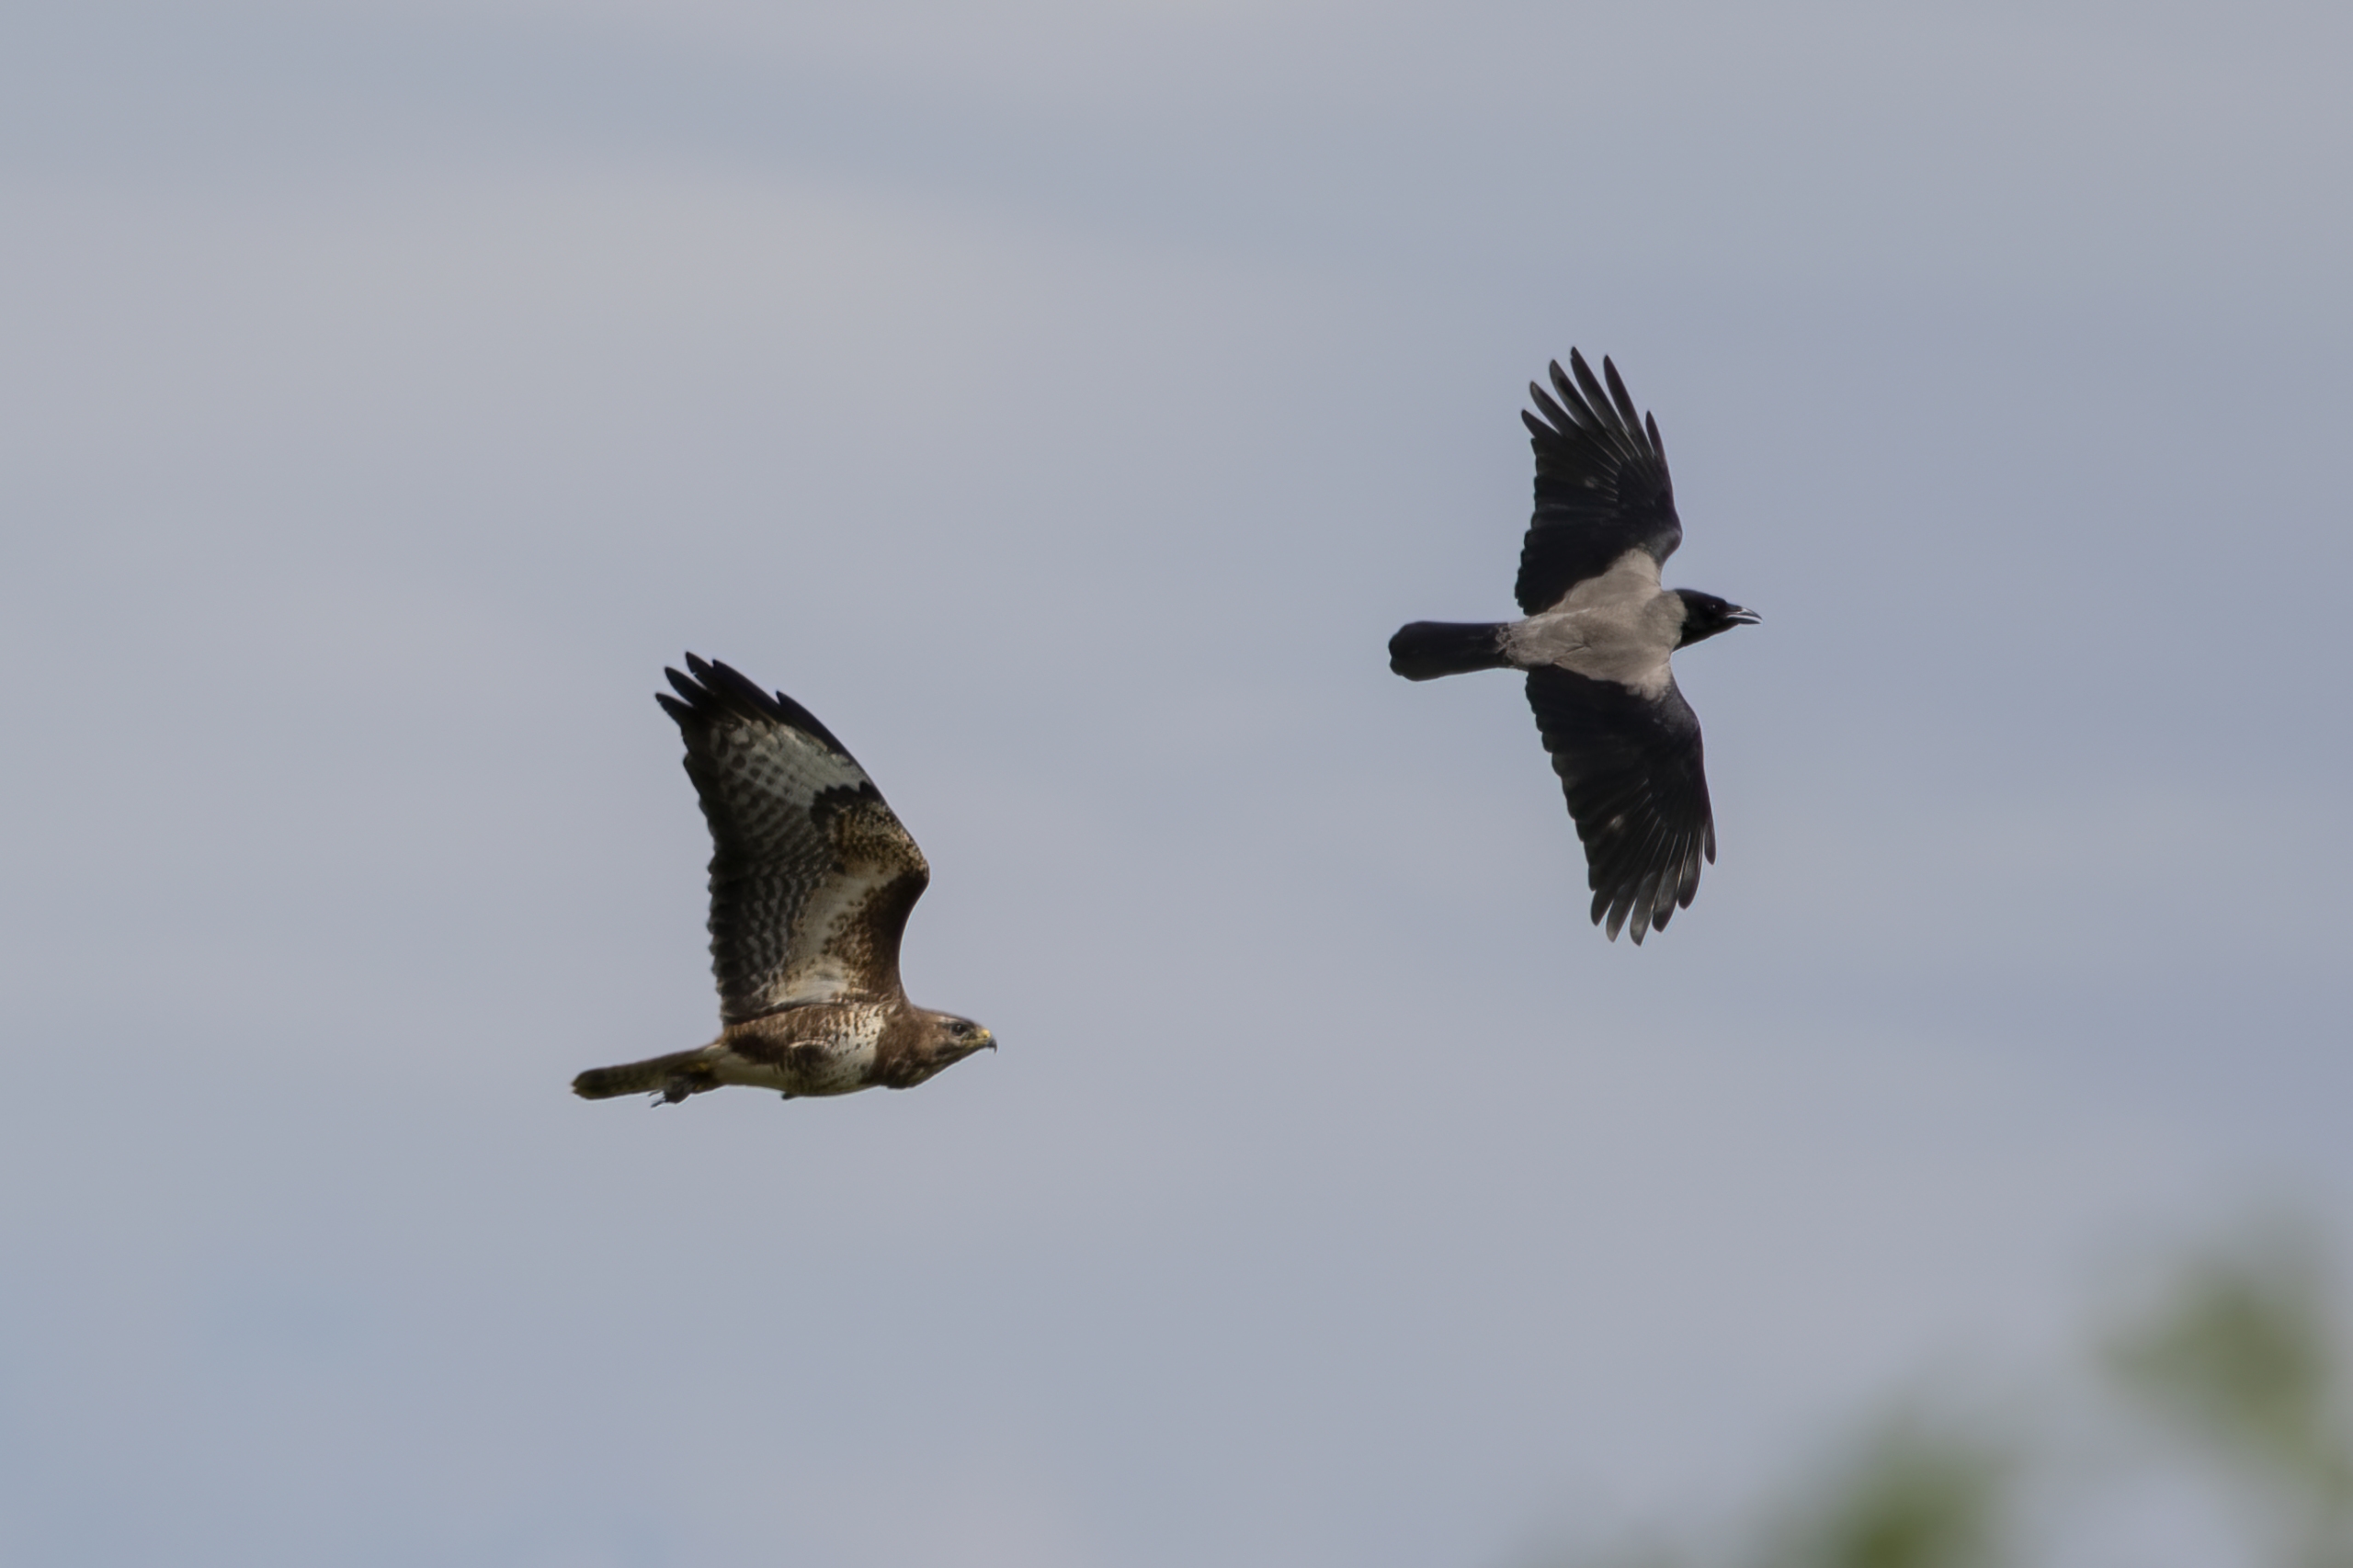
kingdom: Animalia
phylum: Chordata
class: Aves
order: Accipitriformes
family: Accipitridae
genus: Buteo
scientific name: Buteo buteo
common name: Musvåge
